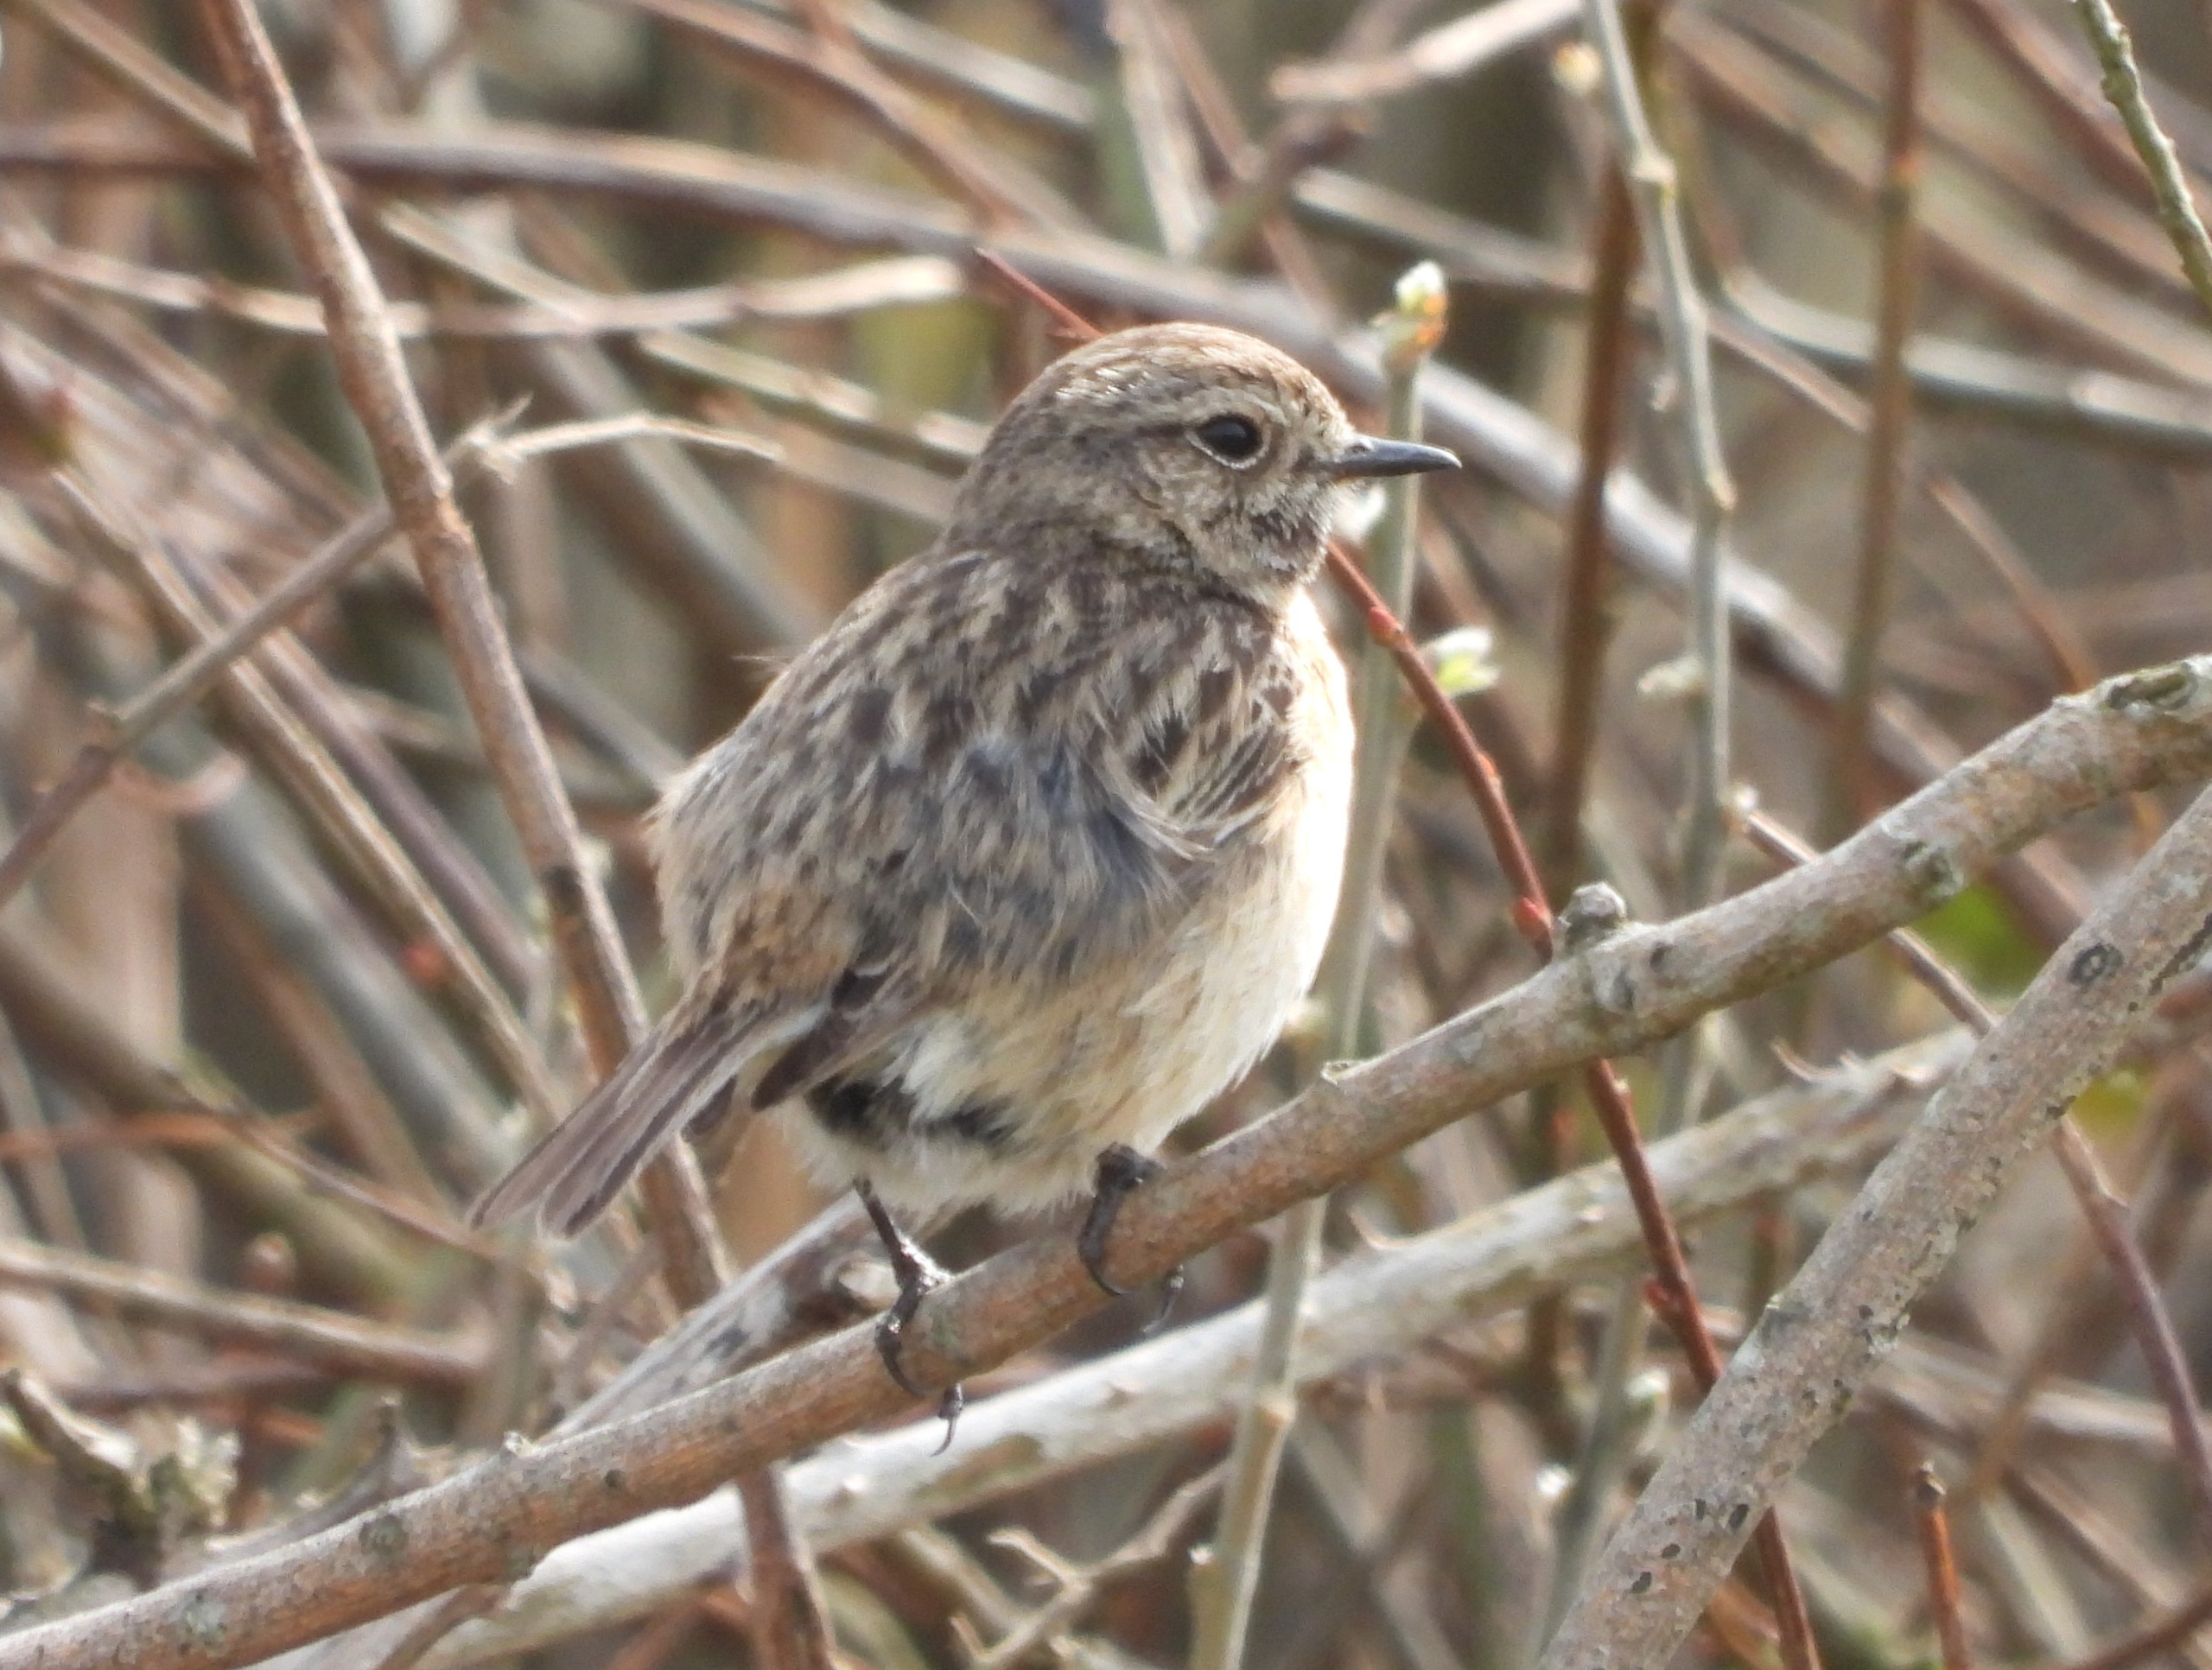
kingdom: Animalia
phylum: Chordata
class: Aves
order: Passeriformes
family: Muscicapidae
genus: Saxicola
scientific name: Saxicola rubicola
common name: Sortstrubet bynkefugl
